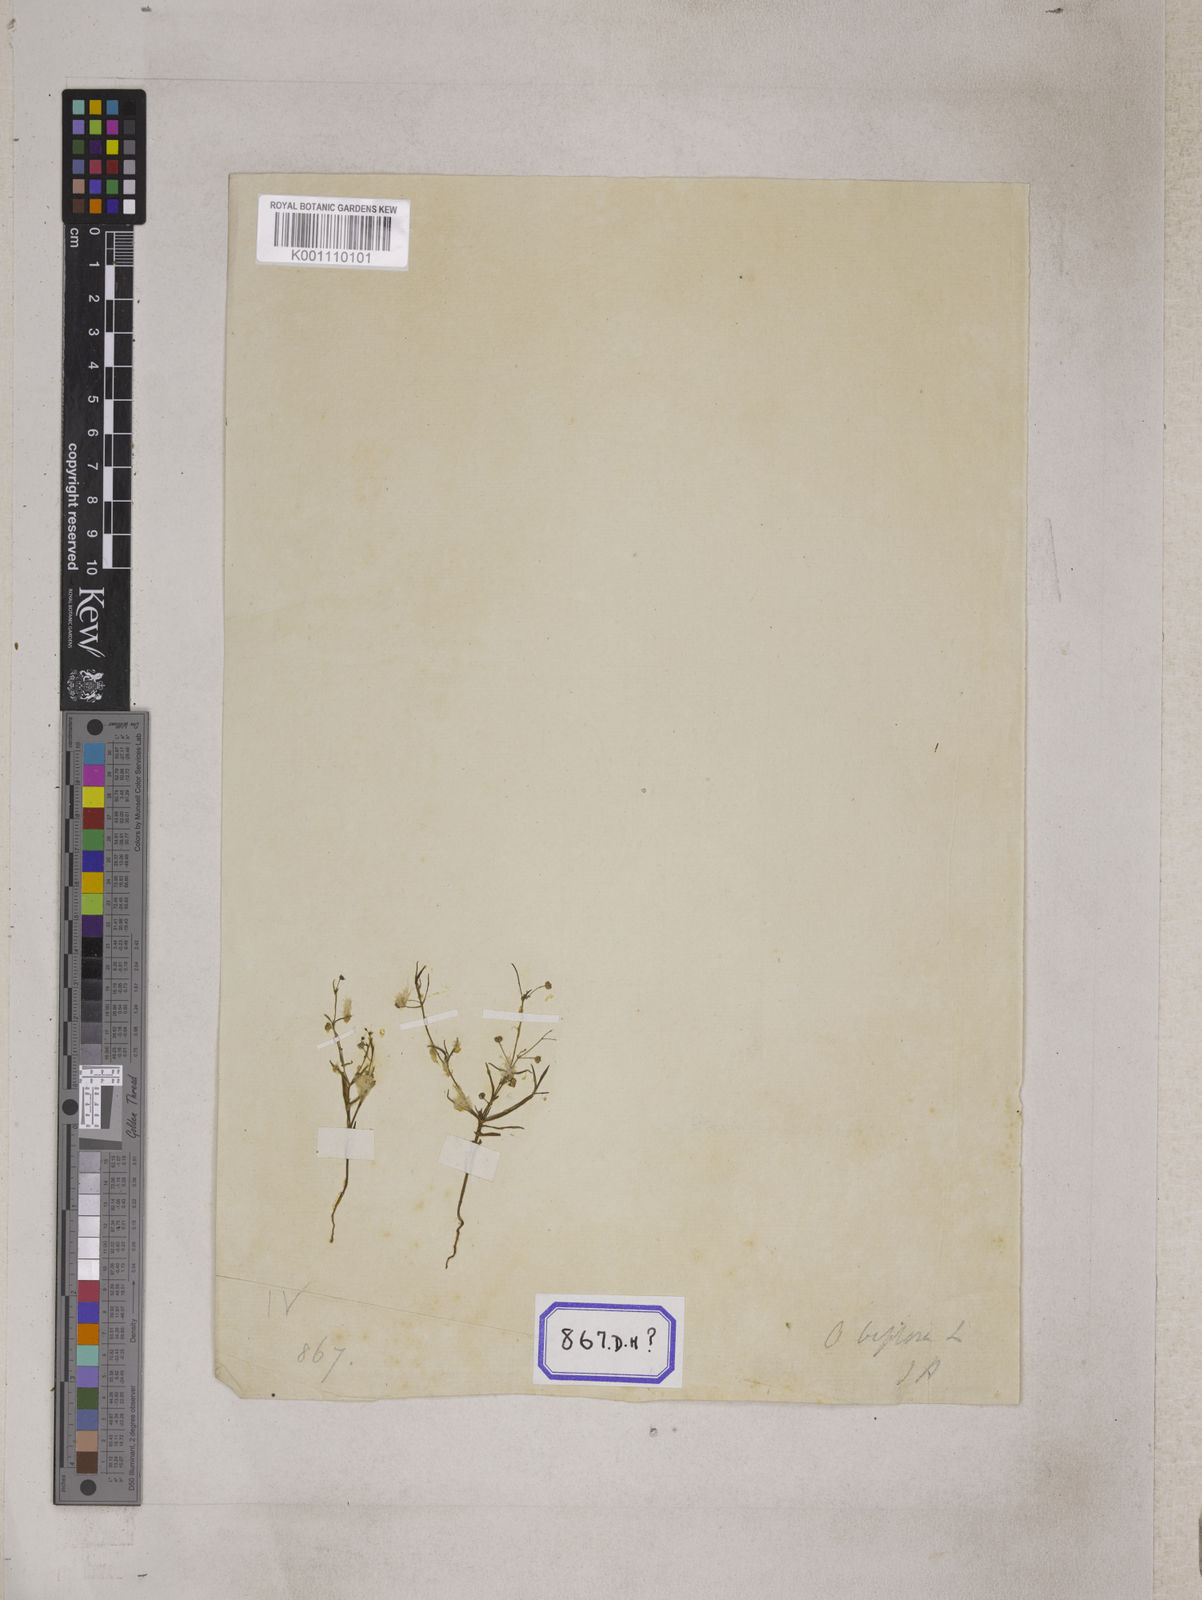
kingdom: Plantae
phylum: Tracheophyta
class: Magnoliopsida
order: Gentianales
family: Rubiaceae
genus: Hedyotis
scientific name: Hedyotis
